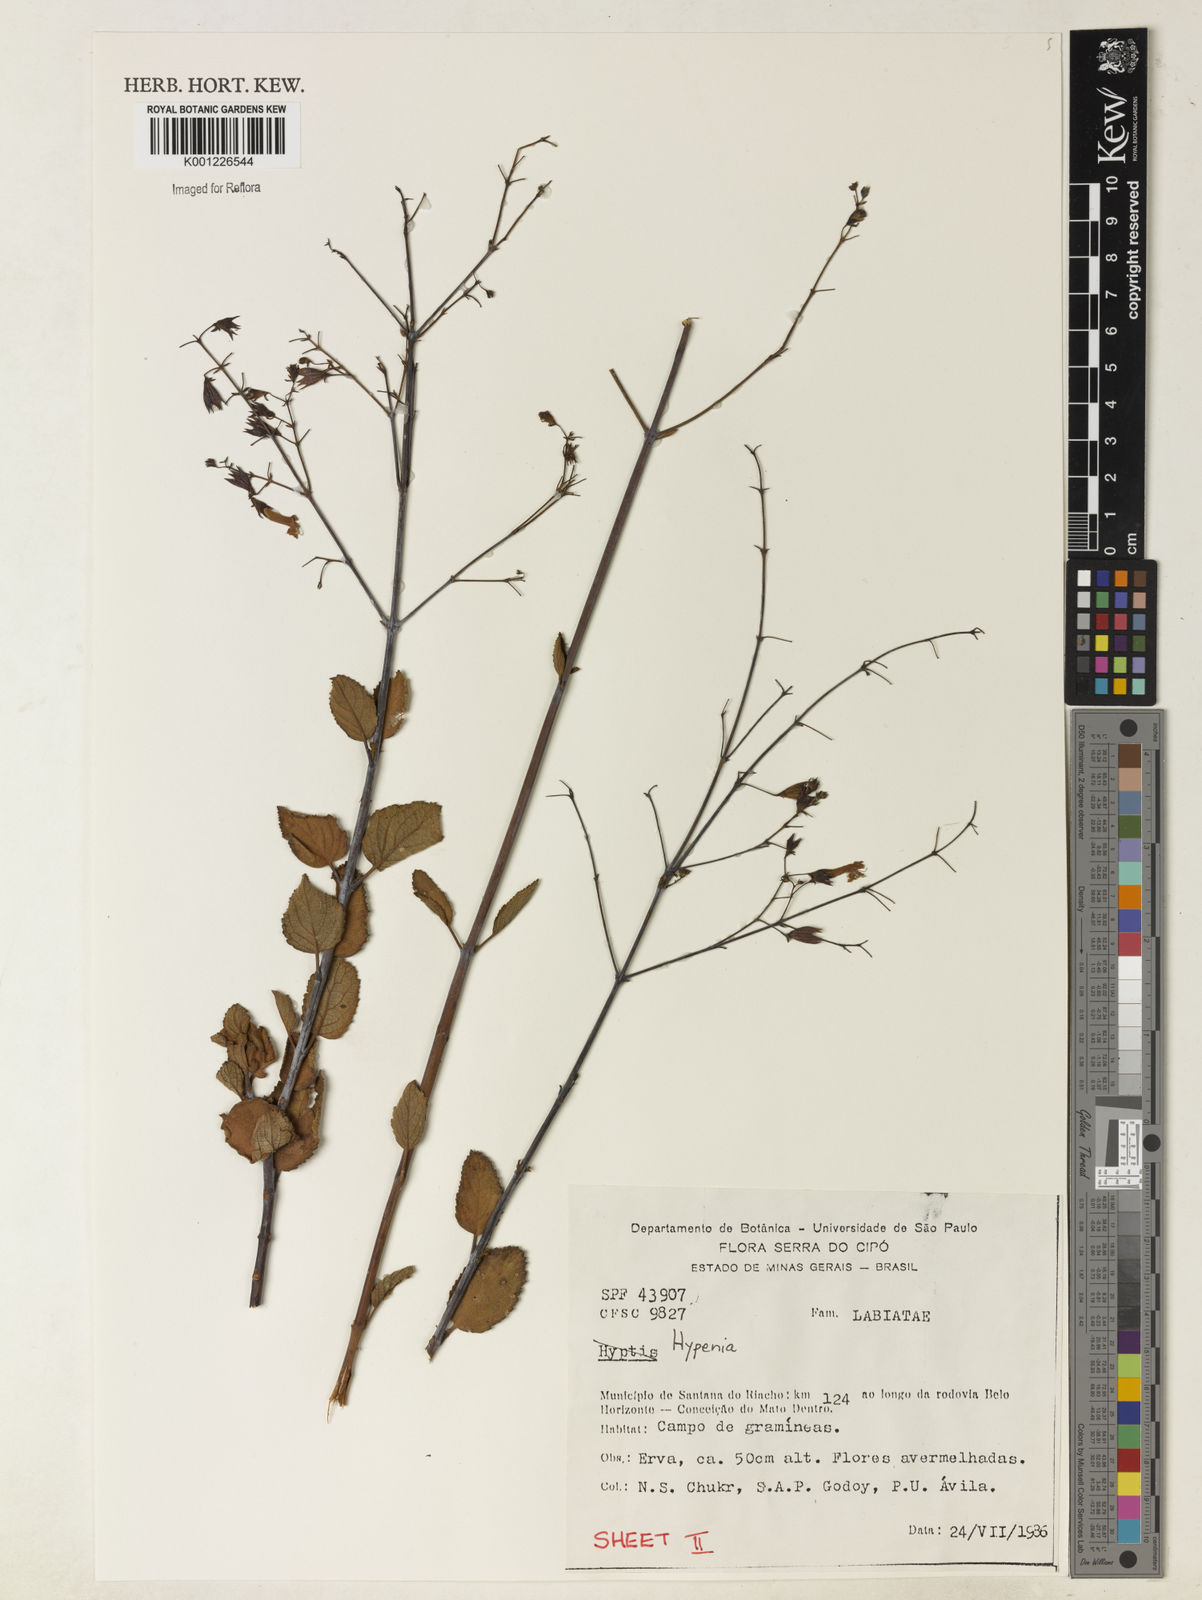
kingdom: Plantae
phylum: Tracheophyta
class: Magnoliopsida
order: Lamiales
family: Lamiaceae
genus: Hypenia
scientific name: Hypenia
